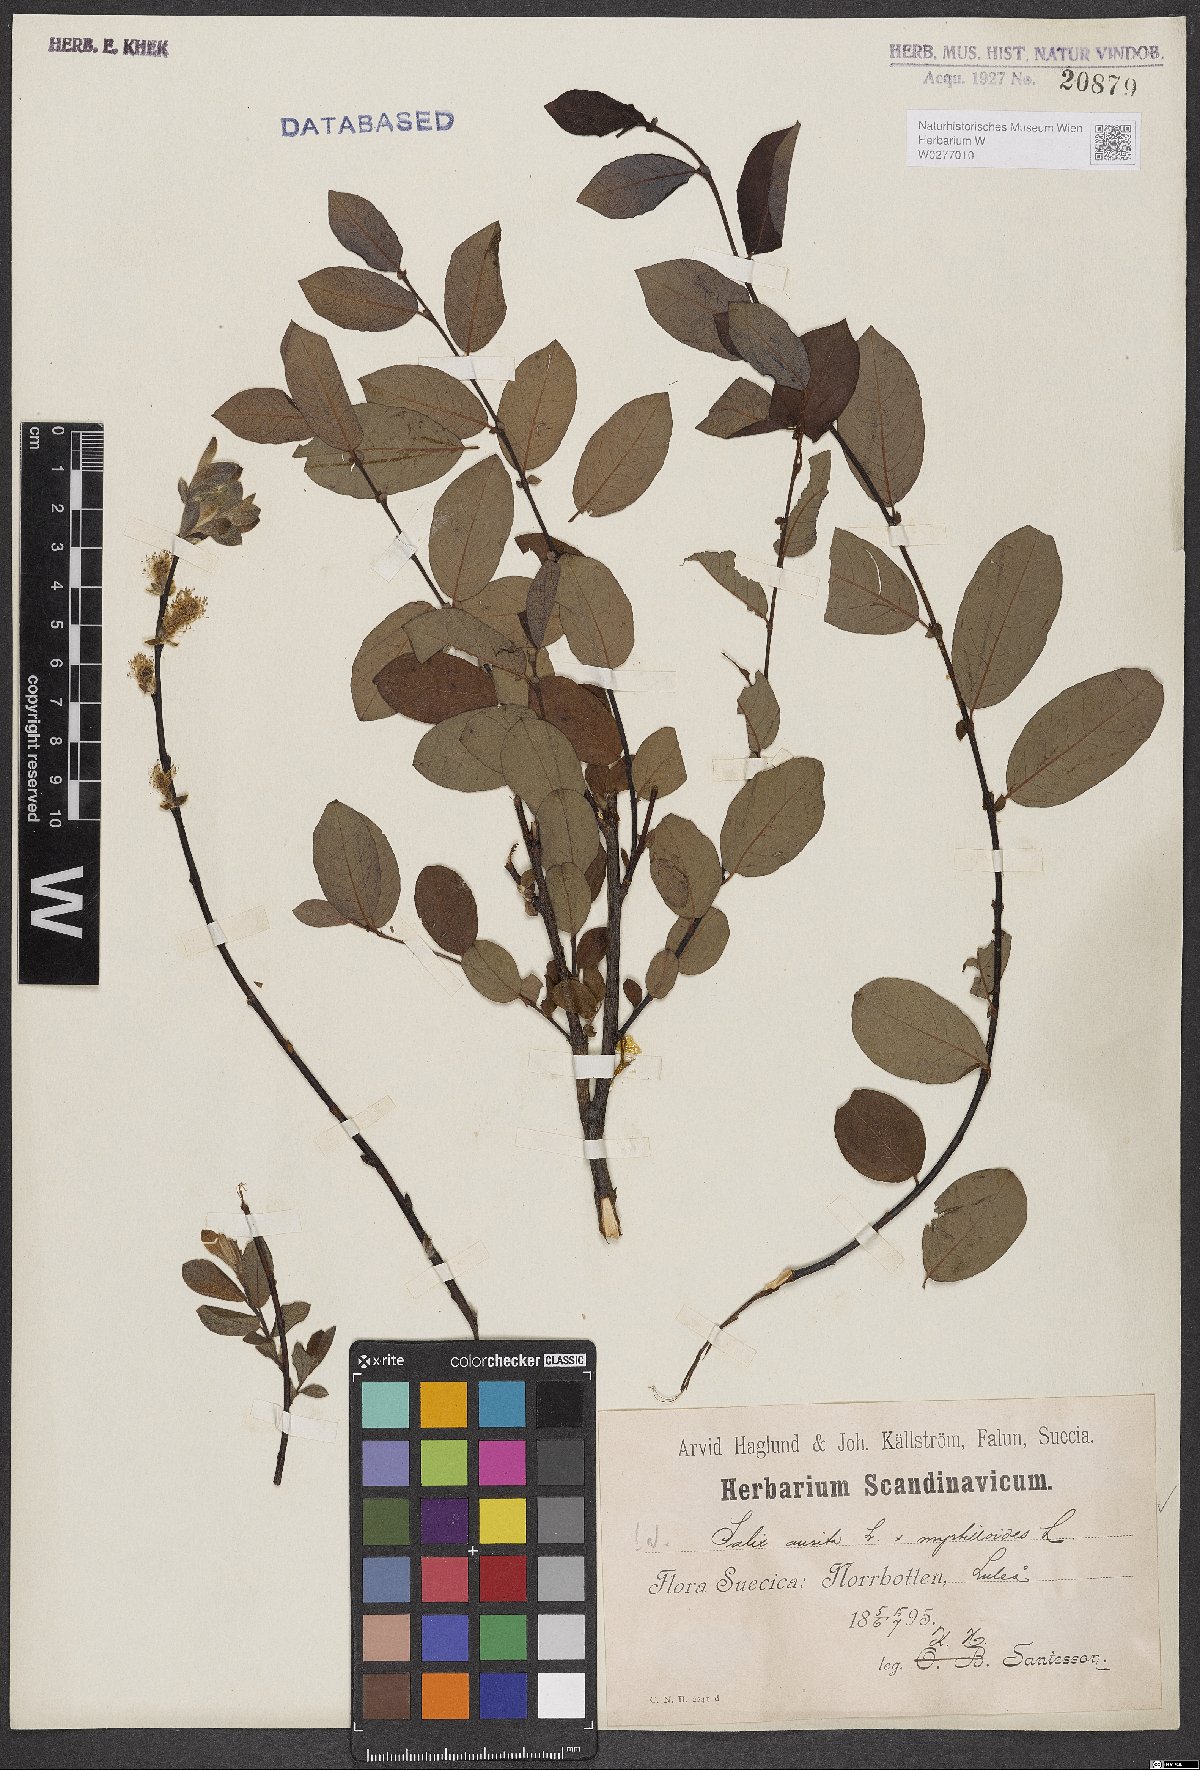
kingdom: Plantae
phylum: Tracheophyta
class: Magnoliopsida
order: Malpighiales
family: Salicaceae
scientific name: Salicaceae
